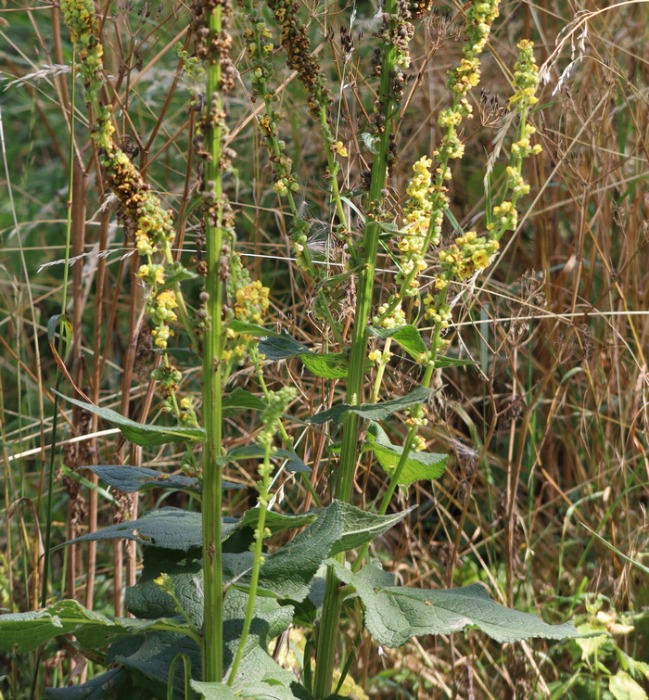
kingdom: Plantae
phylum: Tracheophyta
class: Magnoliopsida
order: Lamiales
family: Scrophulariaceae
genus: Verbascum
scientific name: Verbascum nigrum
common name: Mørk kongelys
